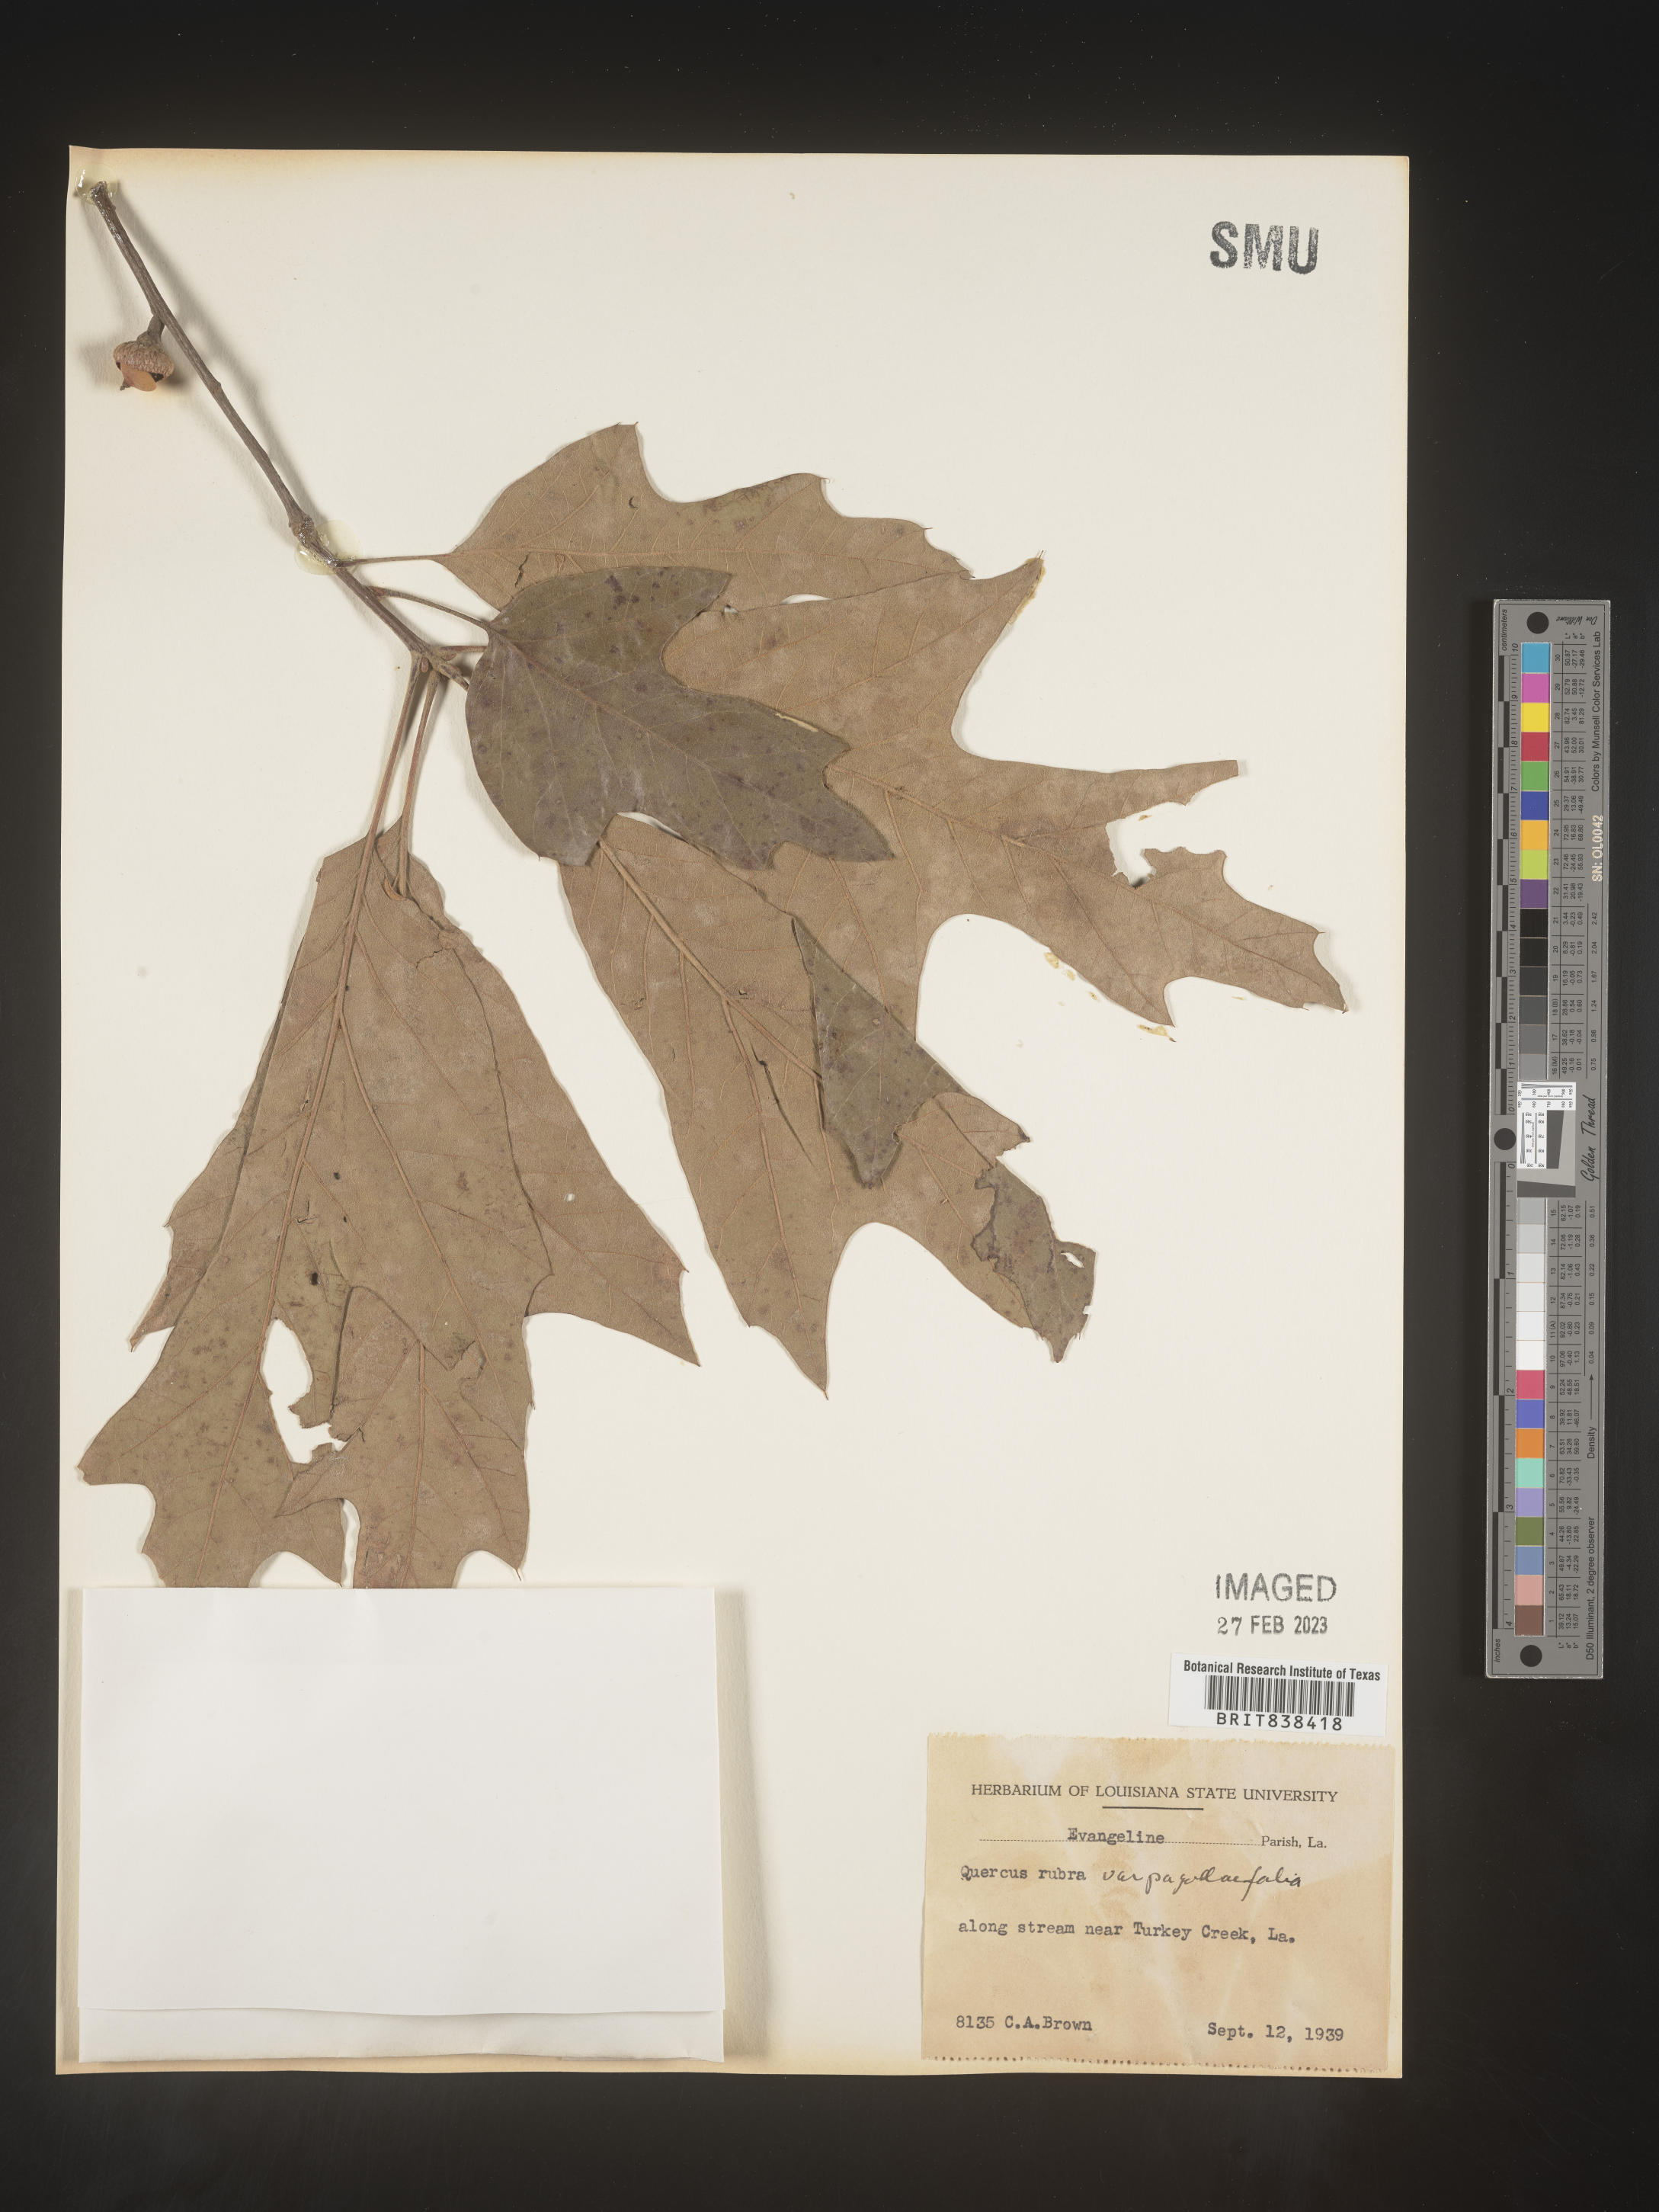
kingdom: Plantae
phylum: Tracheophyta
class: Magnoliopsida
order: Fagales
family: Fagaceae
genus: Quercus
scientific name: Quercus falcata
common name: Southern red oak
